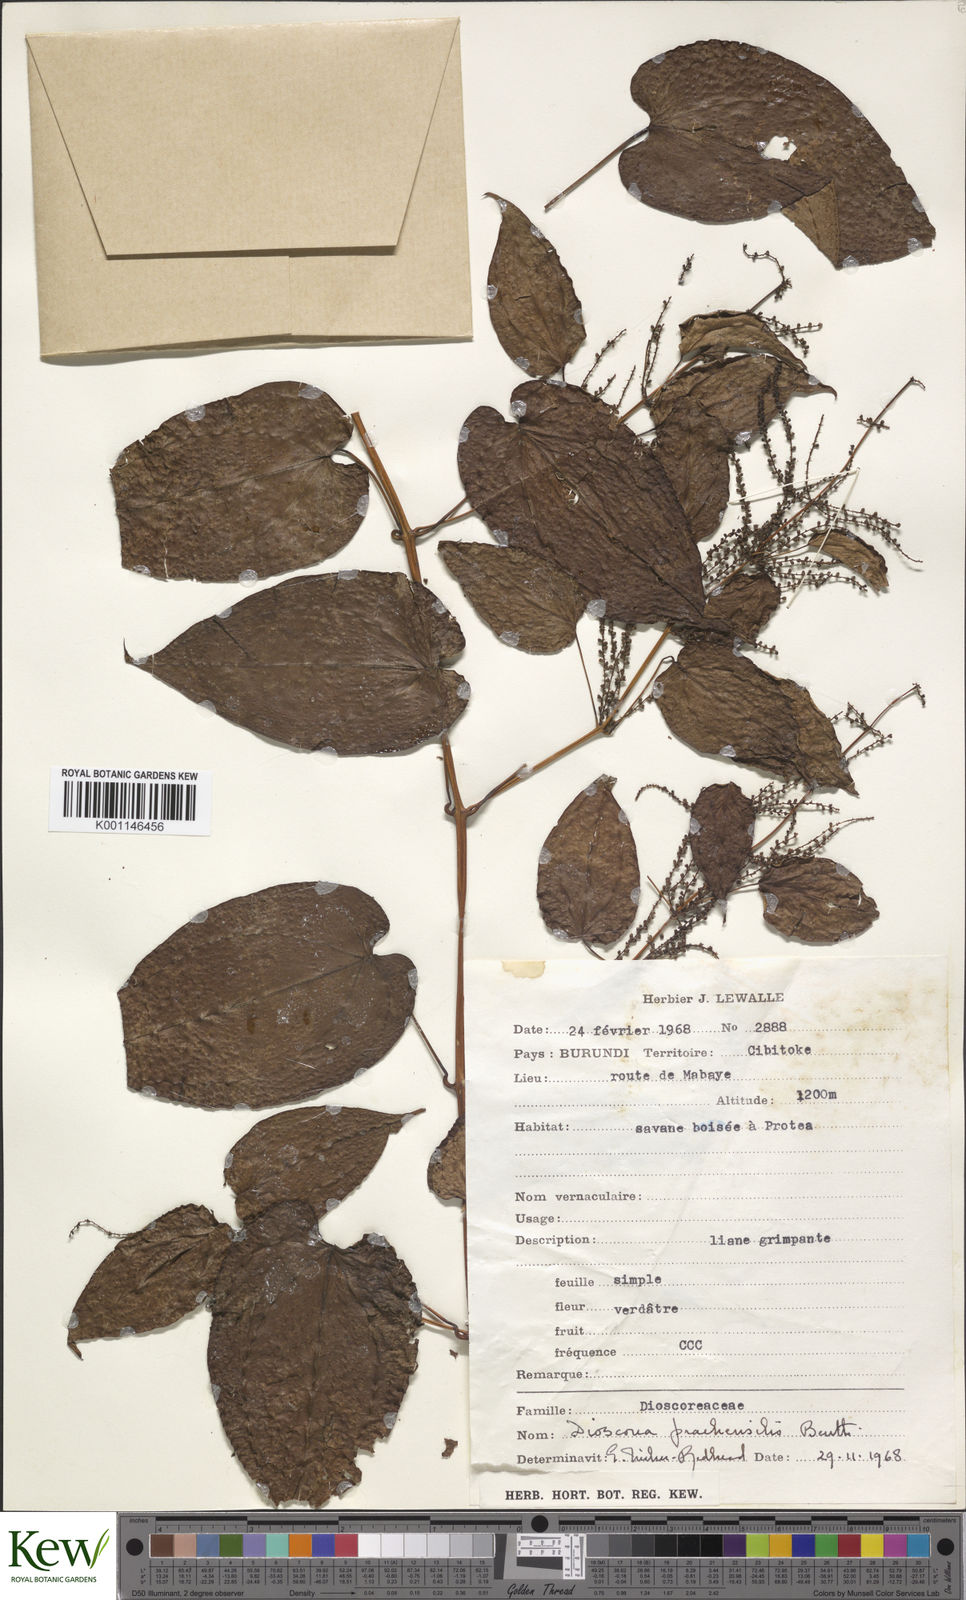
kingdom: Plantae
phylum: Tracheophyta
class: Liliopsida
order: Dioscoreales
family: Dioscoreaceae
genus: Dioscorea
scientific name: Dioscorea praehensilis
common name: Bush yam
